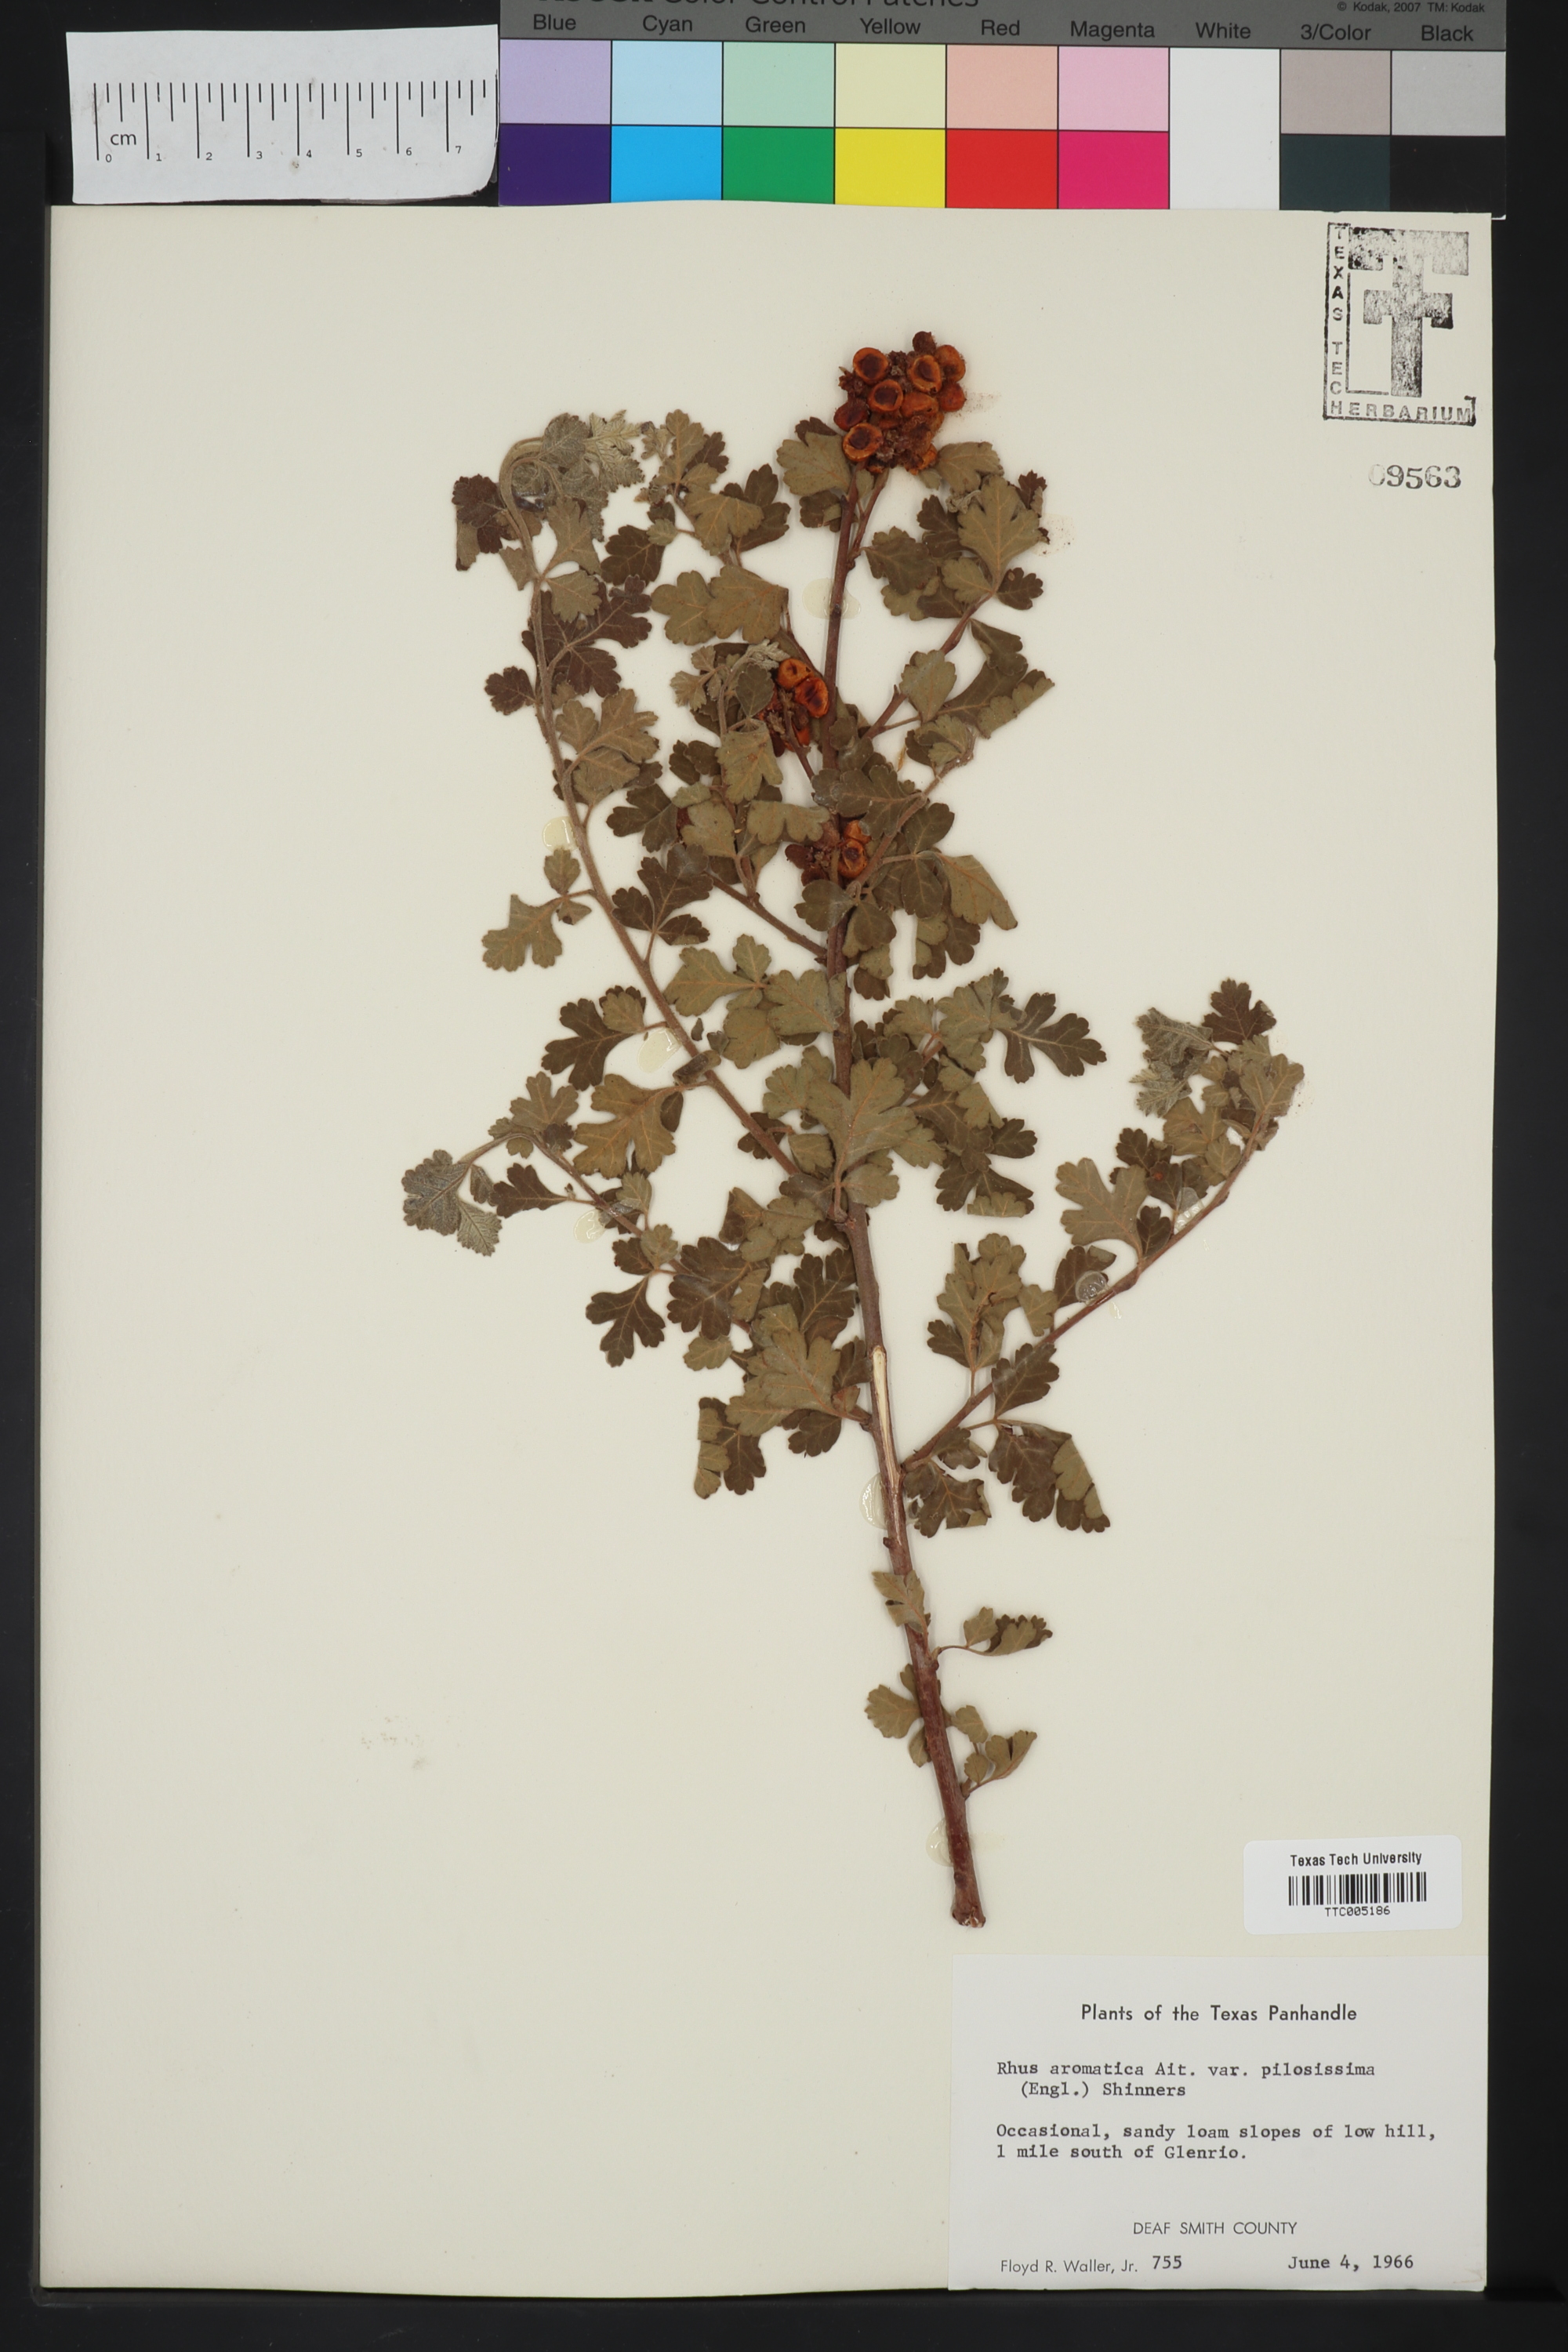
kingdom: Plantae
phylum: Tracheophyta
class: Magnoliopsida
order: Sapindales
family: Anacardiaceae
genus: Rhus
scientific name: Rhus trilobata
